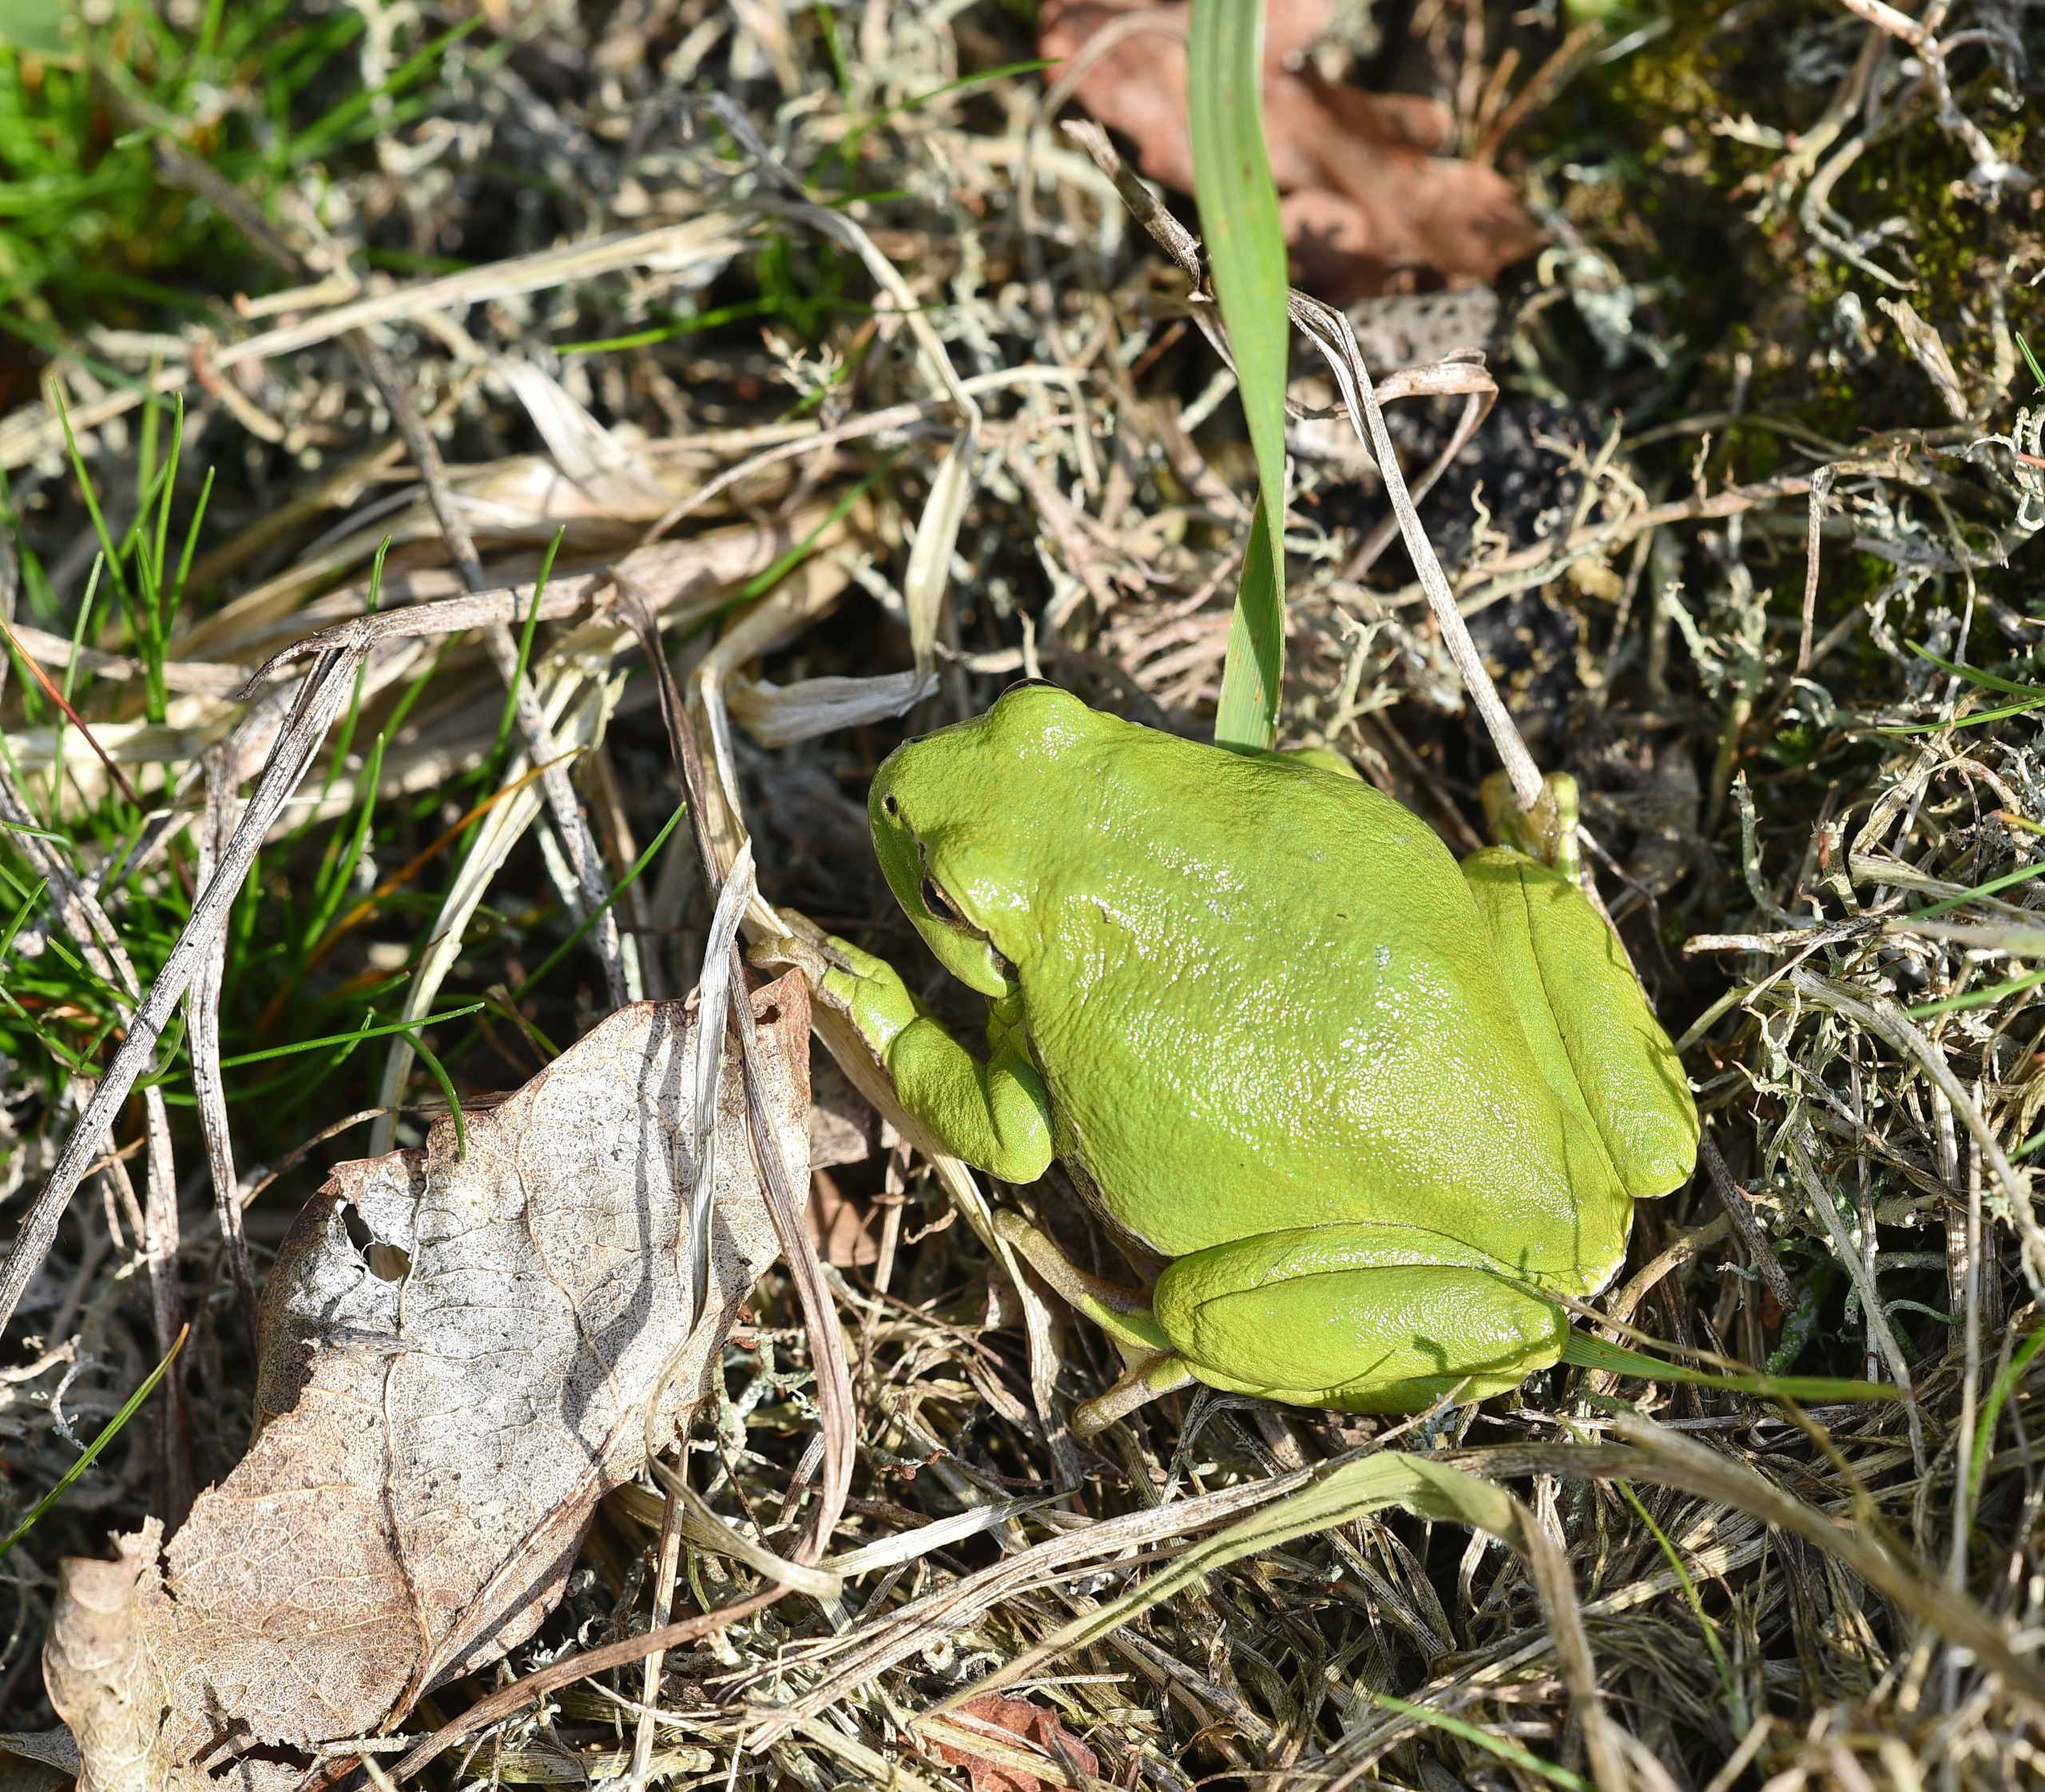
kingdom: Animalia
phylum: Chordata
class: Amphibia
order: Anura
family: Hylidae
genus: Hyla
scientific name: Hyla arborea
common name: Løvfrø
